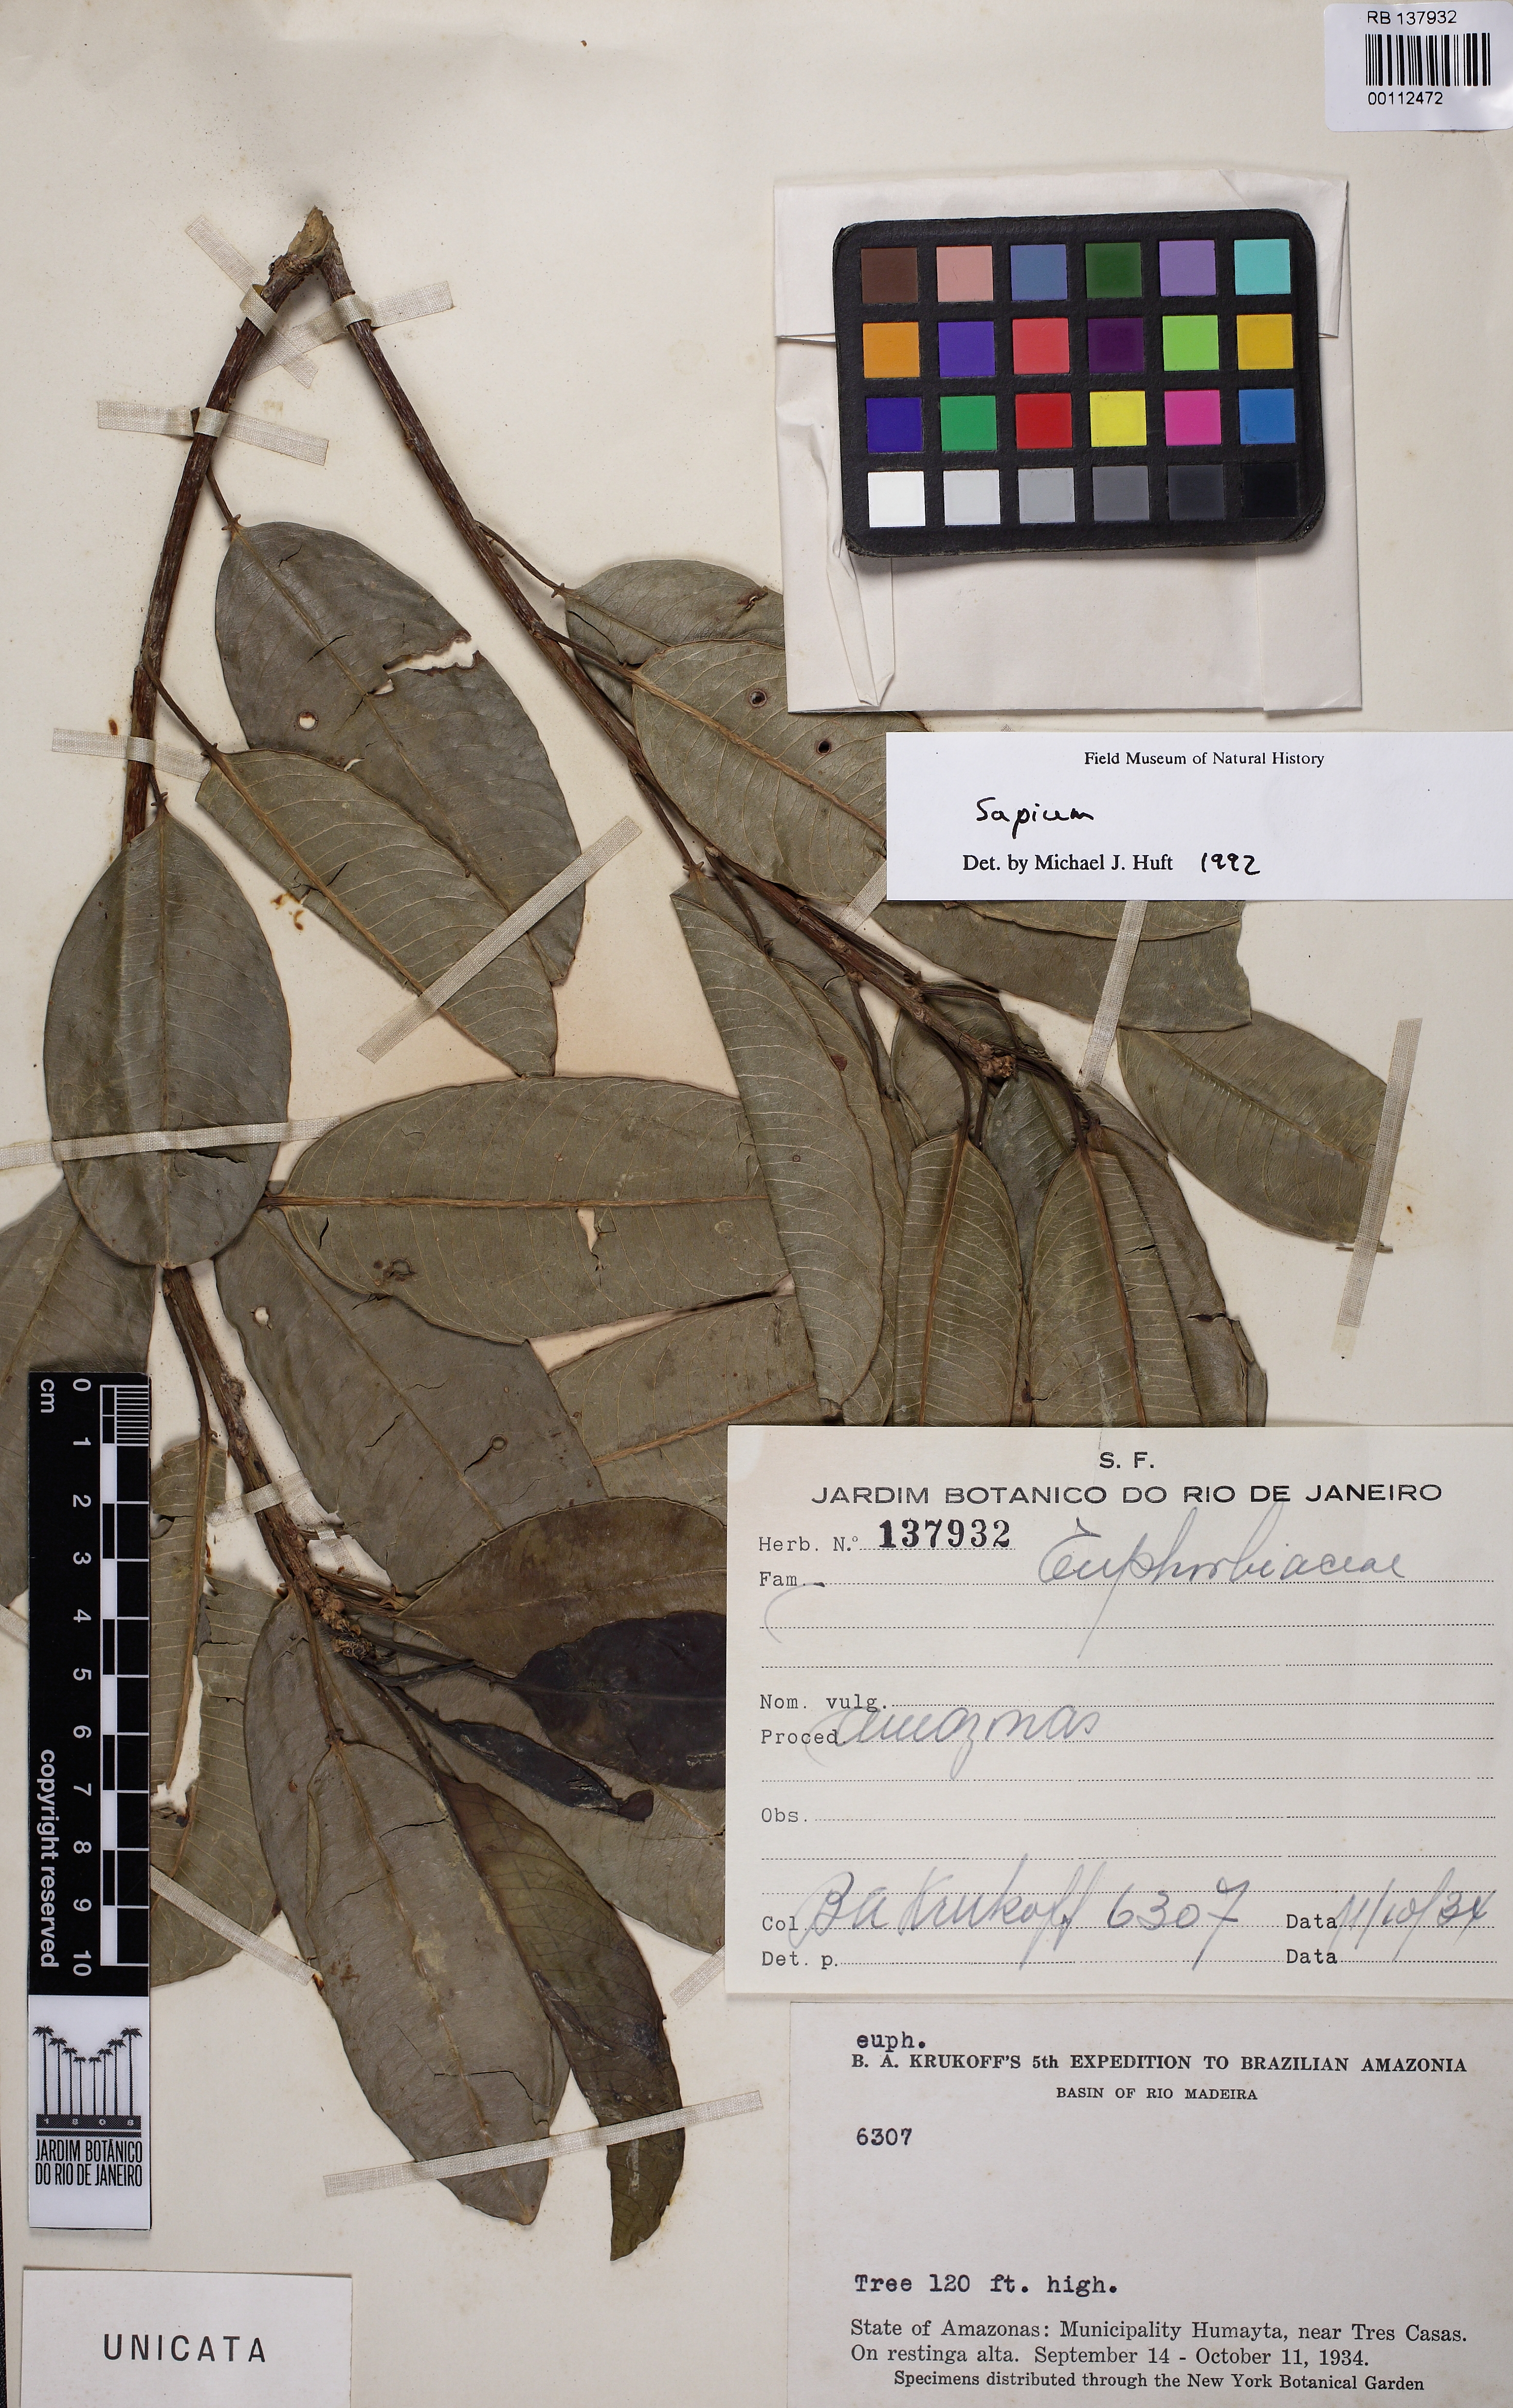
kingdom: Plantae
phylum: Tracheophyta
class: Magnoliopsida
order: Malpighiales
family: Euphorbiaceae
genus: Sapium
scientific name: Sapium obovatum
